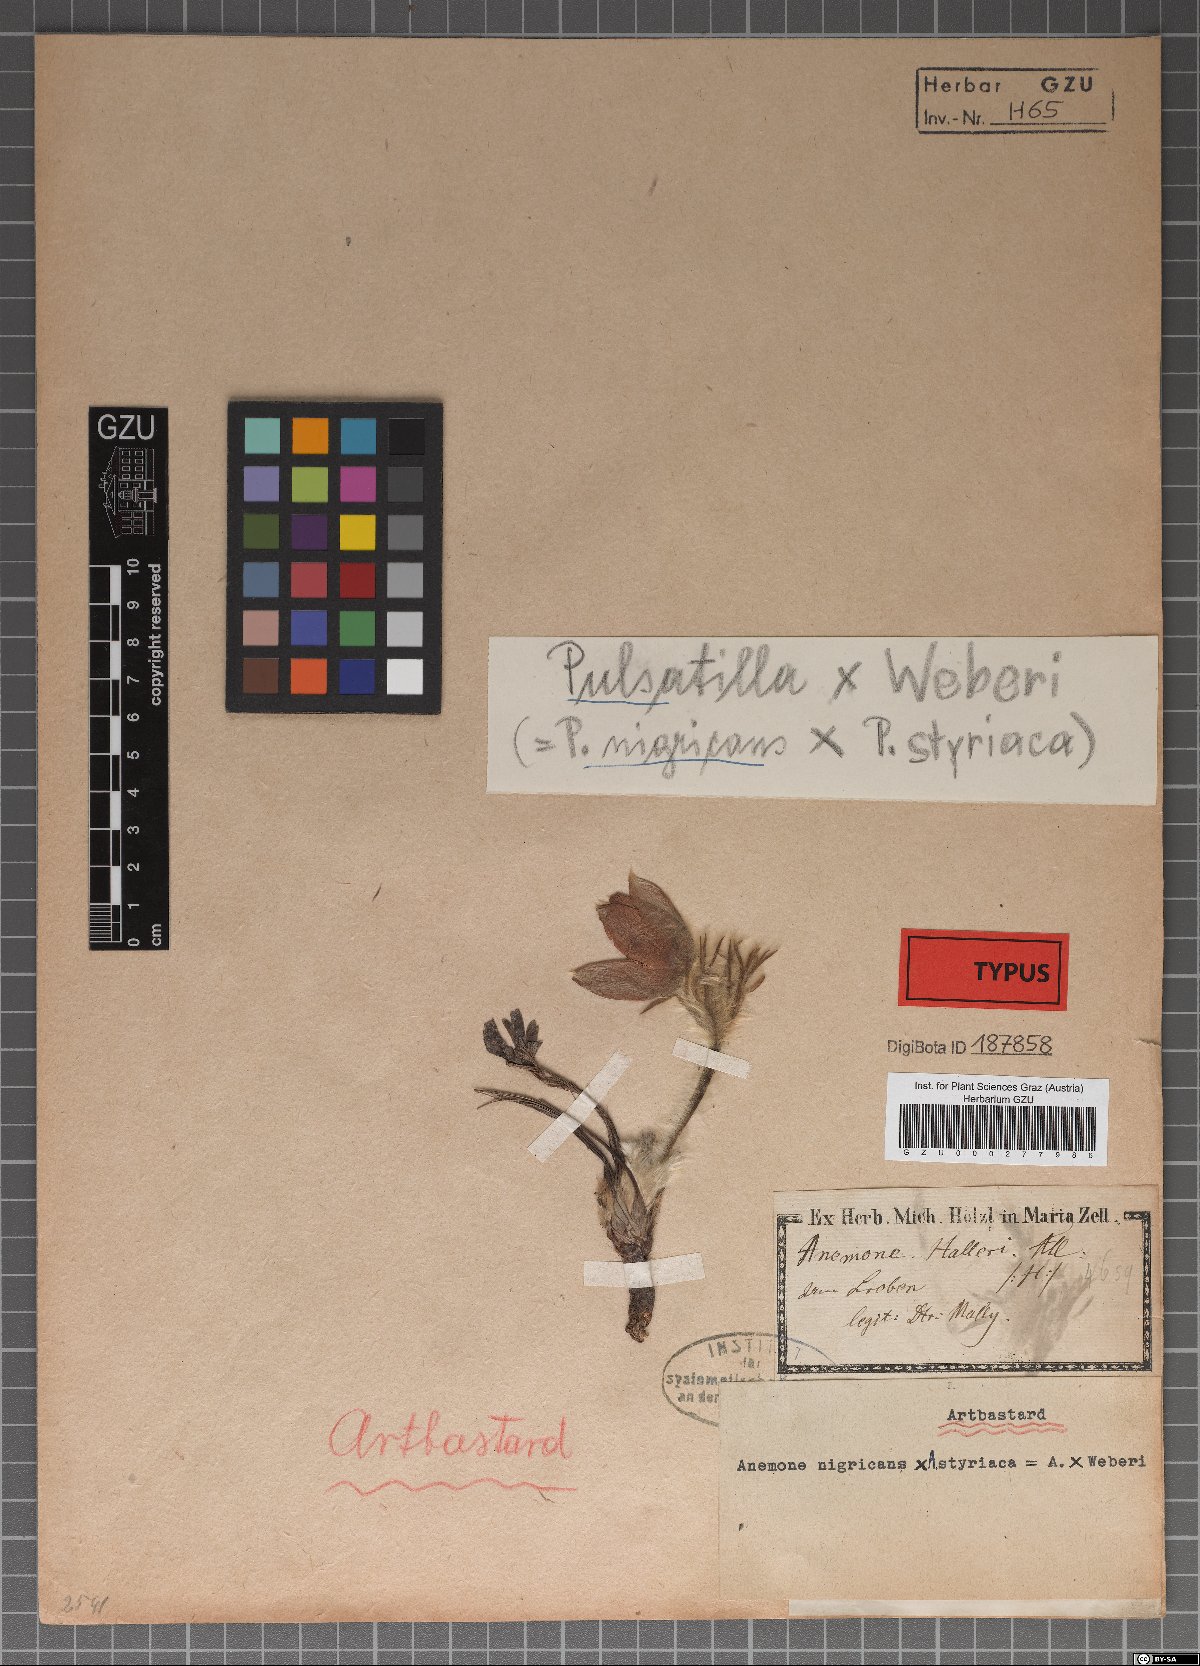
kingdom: Plantae
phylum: Tracheophyta
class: Magnoliopsida
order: Ranunculales
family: Ranunculaceae
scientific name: Ranunculaceae
